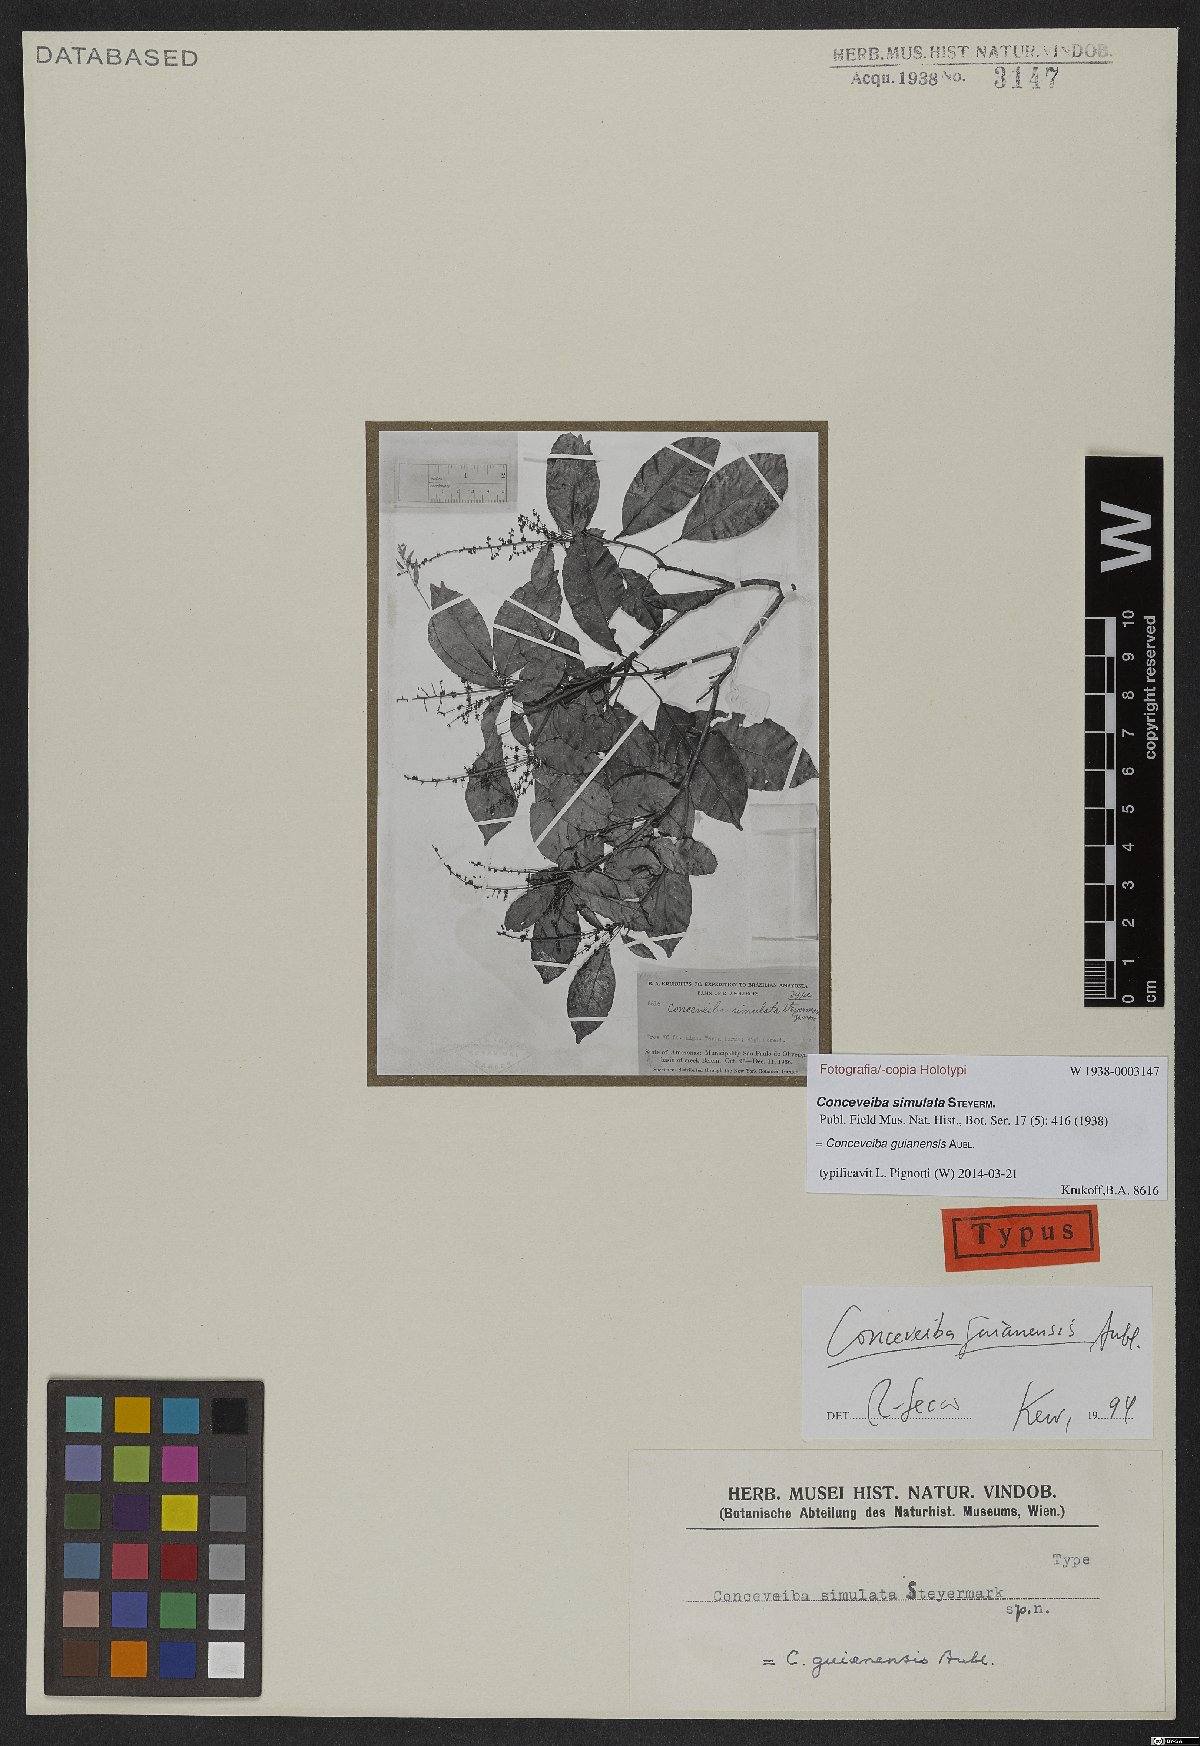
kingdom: Plantae
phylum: Tracheophyta
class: Magnoliopsida
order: Malpighiales
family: Euphorbiaceae
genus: Conceveiba
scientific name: Conceveiba guianensis
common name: Poatoru
